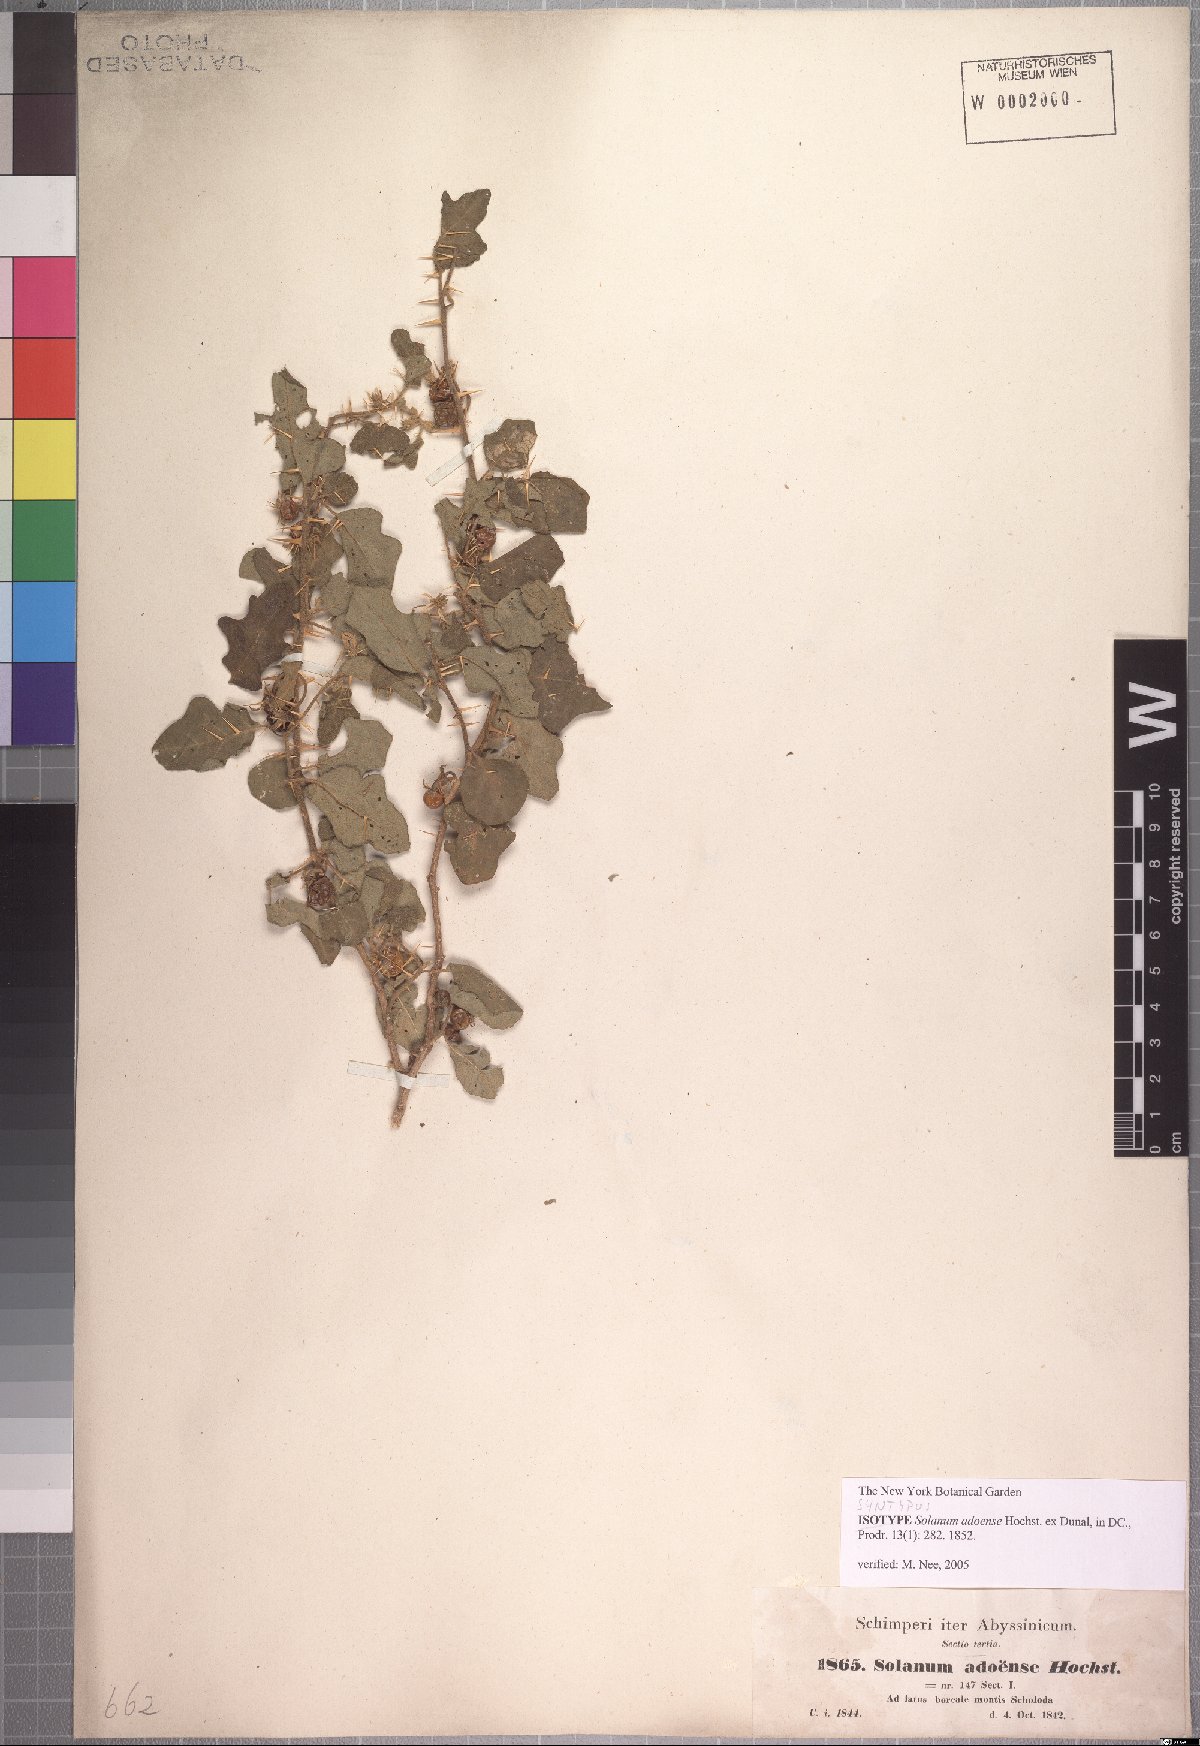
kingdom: Plantae
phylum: Tracheophyta
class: Magnoliopsida
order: Solanales
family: Solanaceae
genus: Solanum
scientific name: Solanum adoense
